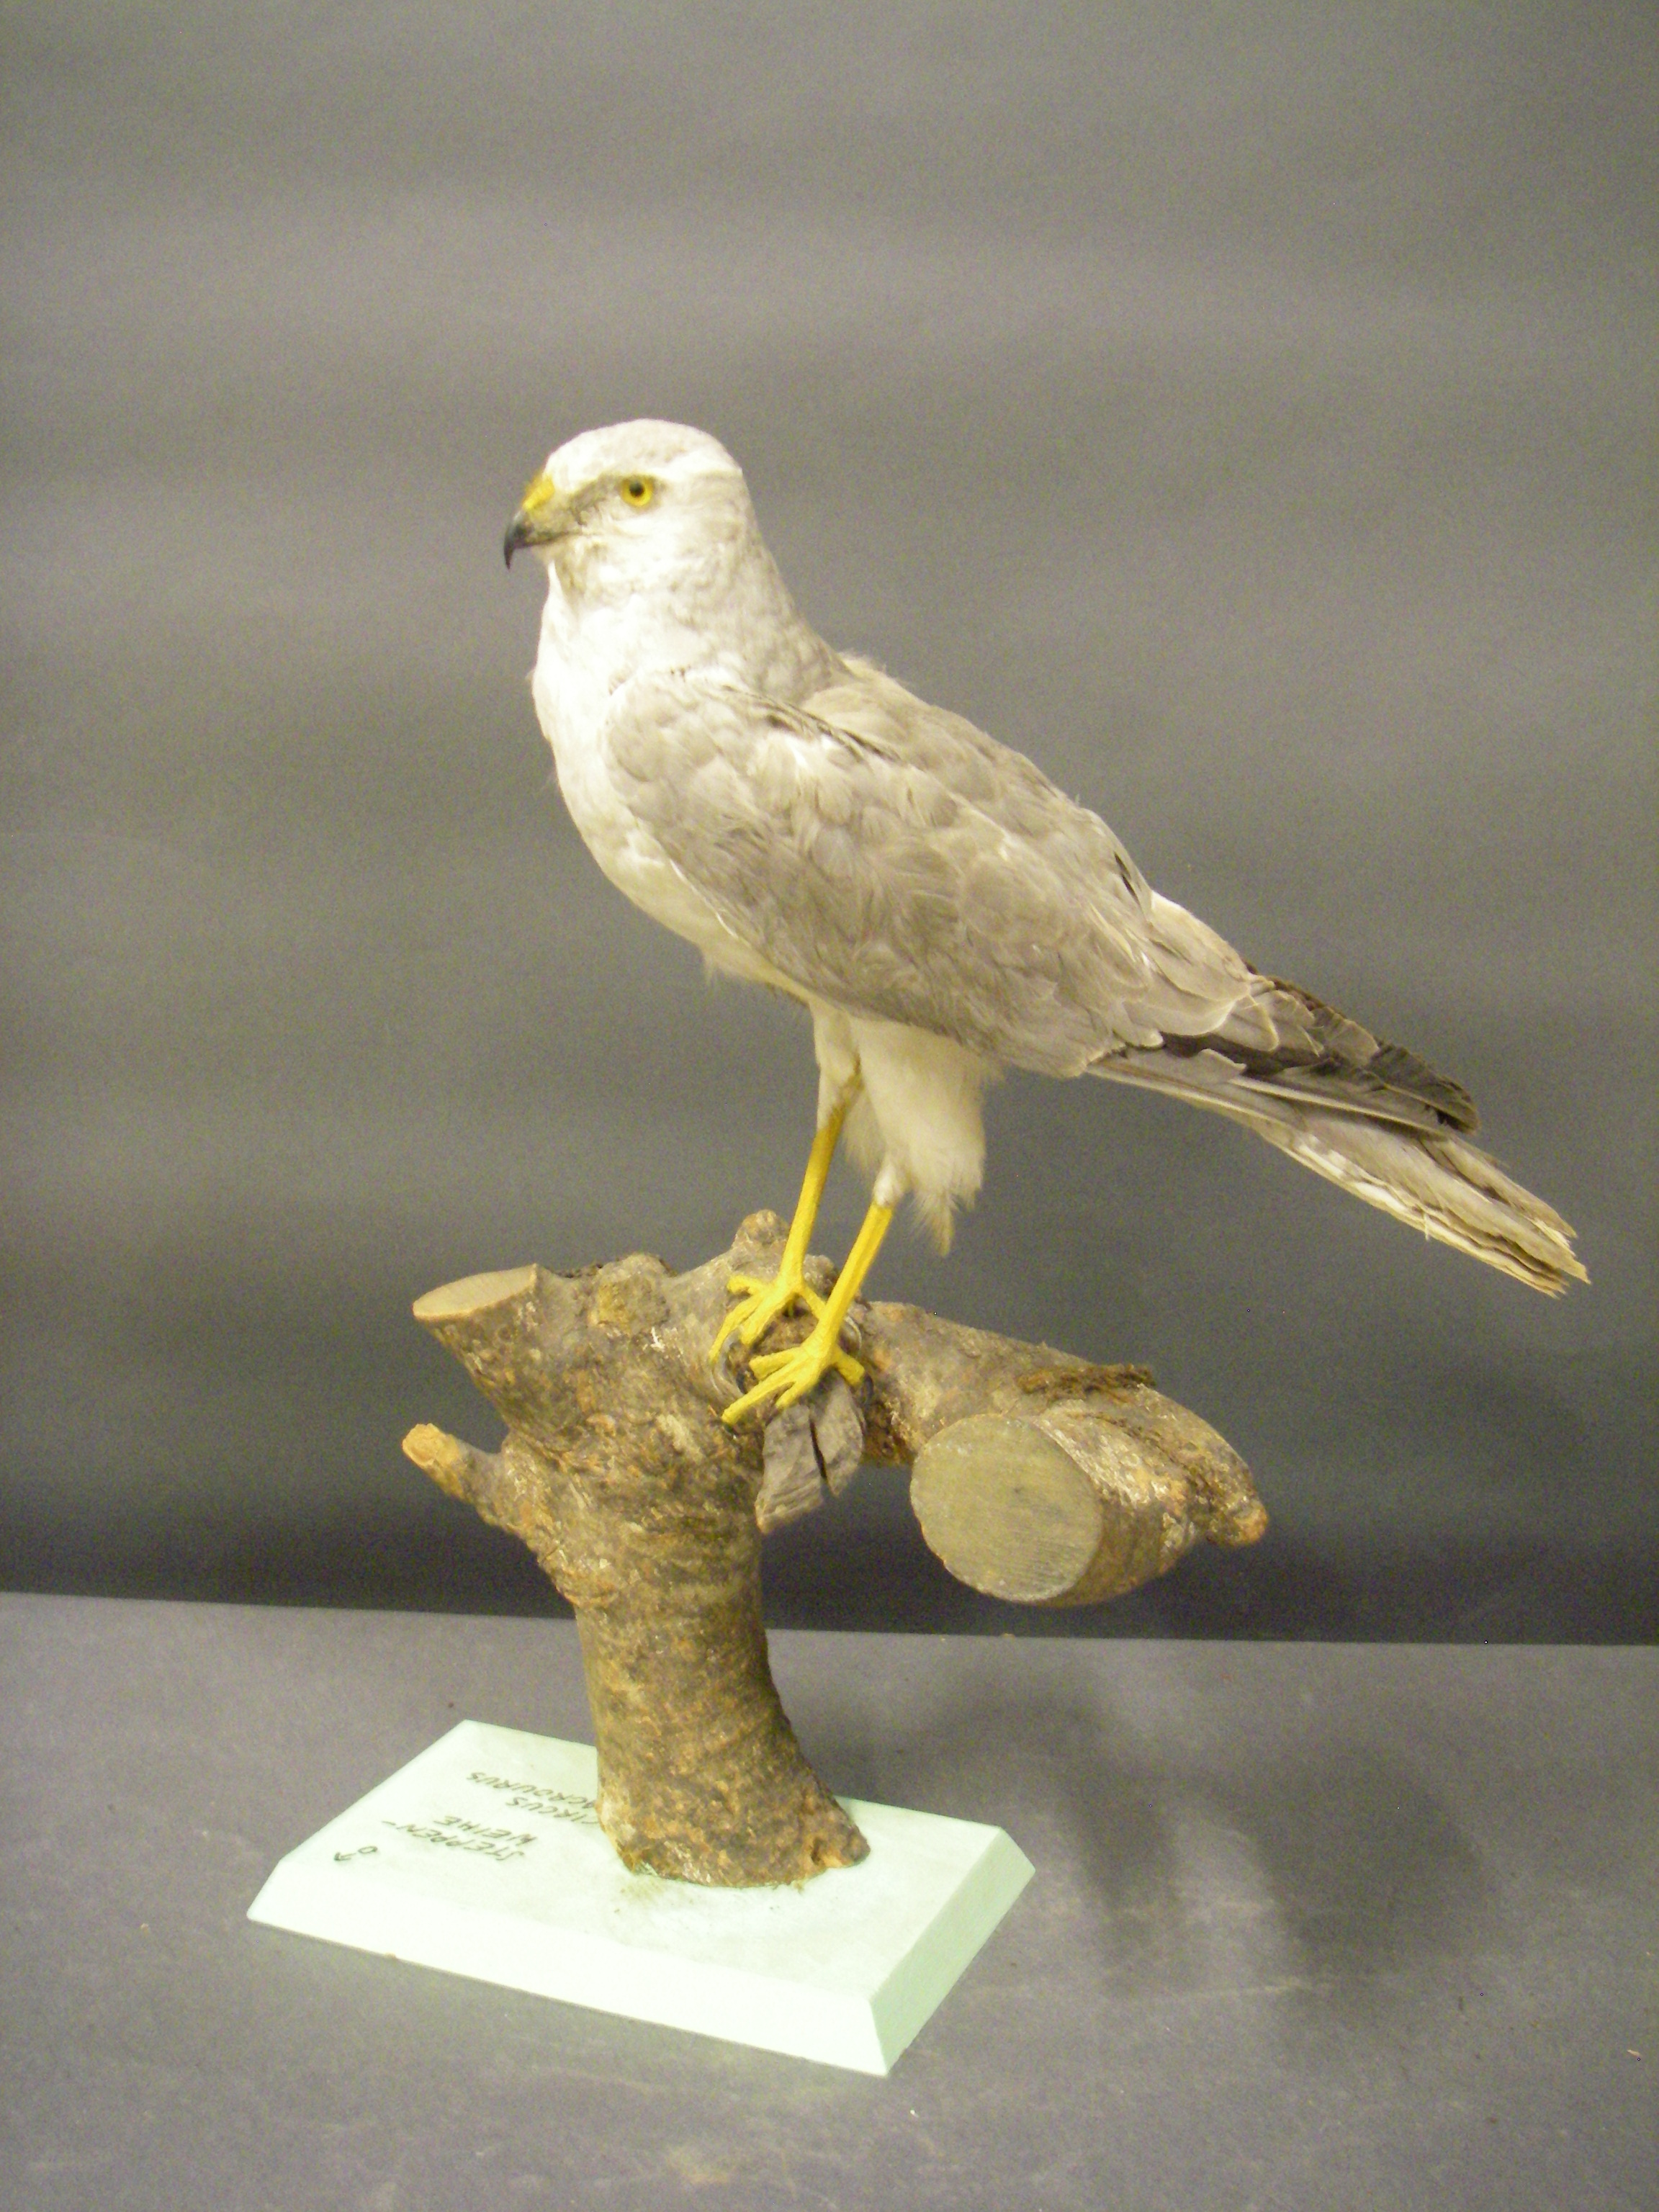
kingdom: Animalia
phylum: Chordata
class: Aves
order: Accipitriformes
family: Accipitridae
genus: Circus
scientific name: Circus macrourus
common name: Pallid harrier
